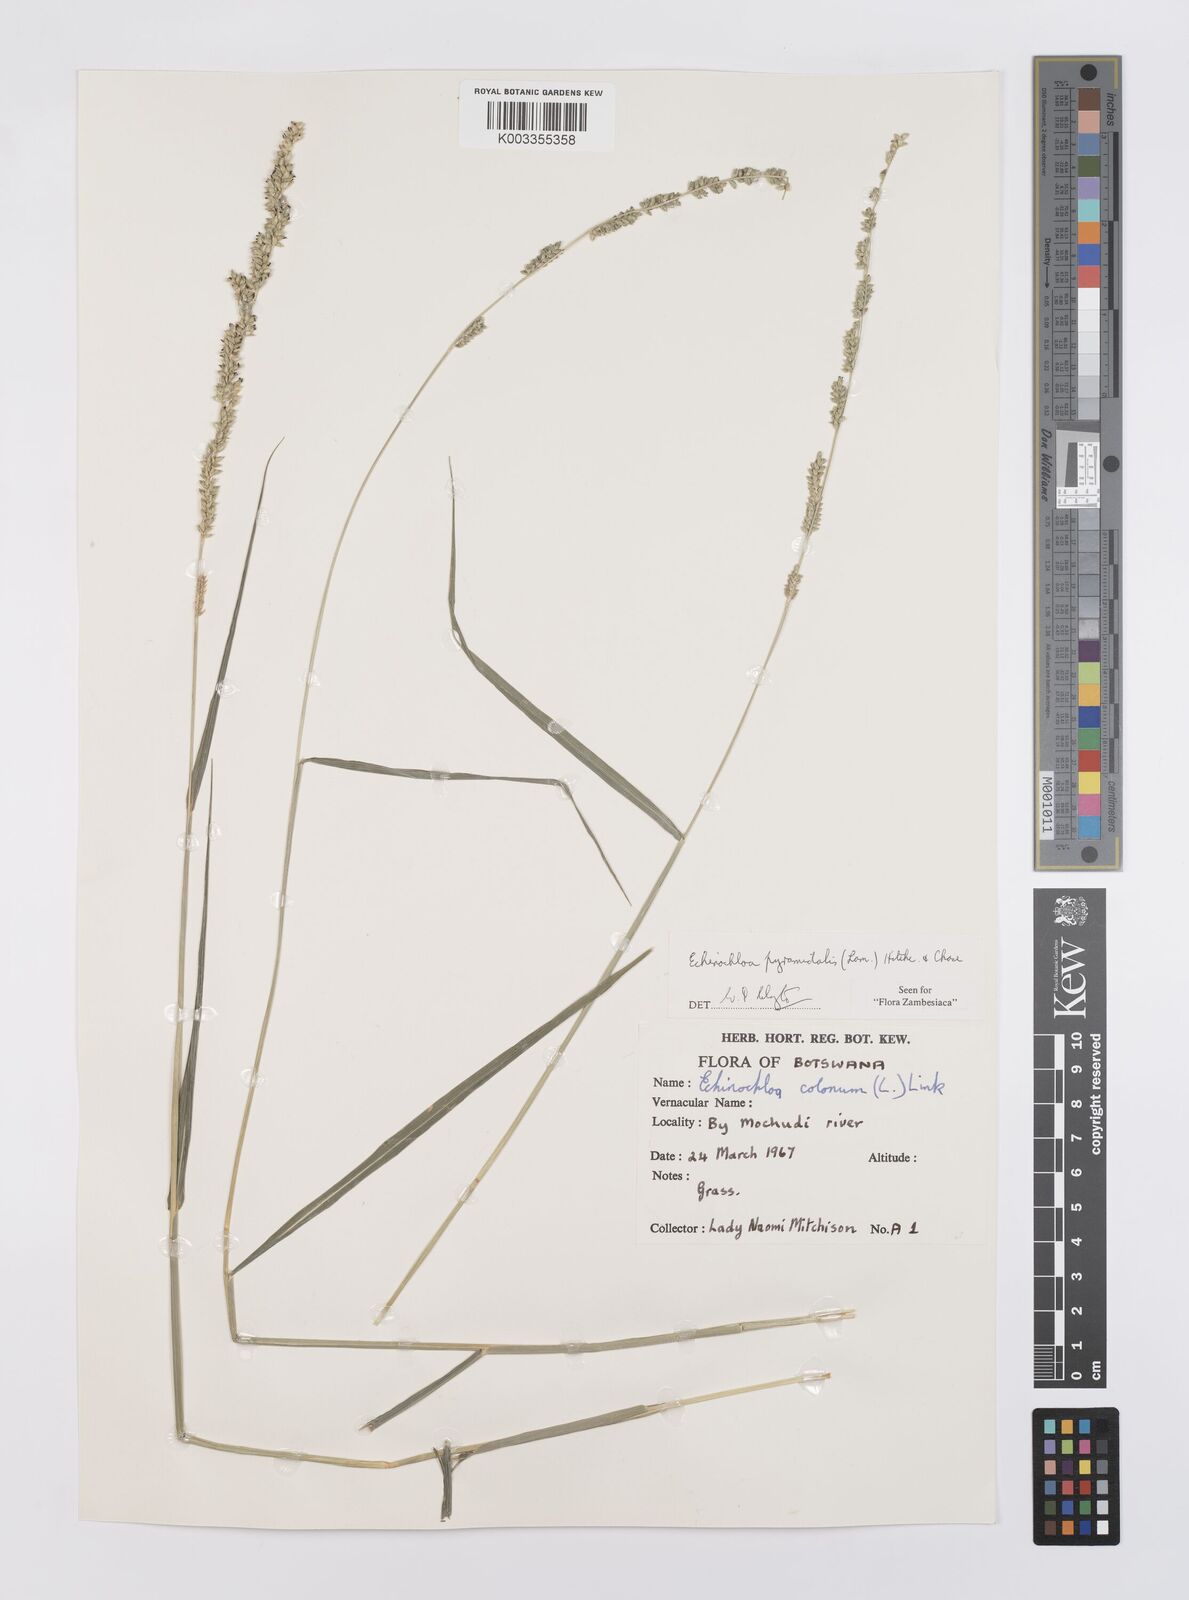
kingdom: Plantae
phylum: Tracheophyta
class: Liliopsida
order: Poales
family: Poaceae
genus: Echinochloa
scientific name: Echinochloa pyramidalis
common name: Antelope grass
